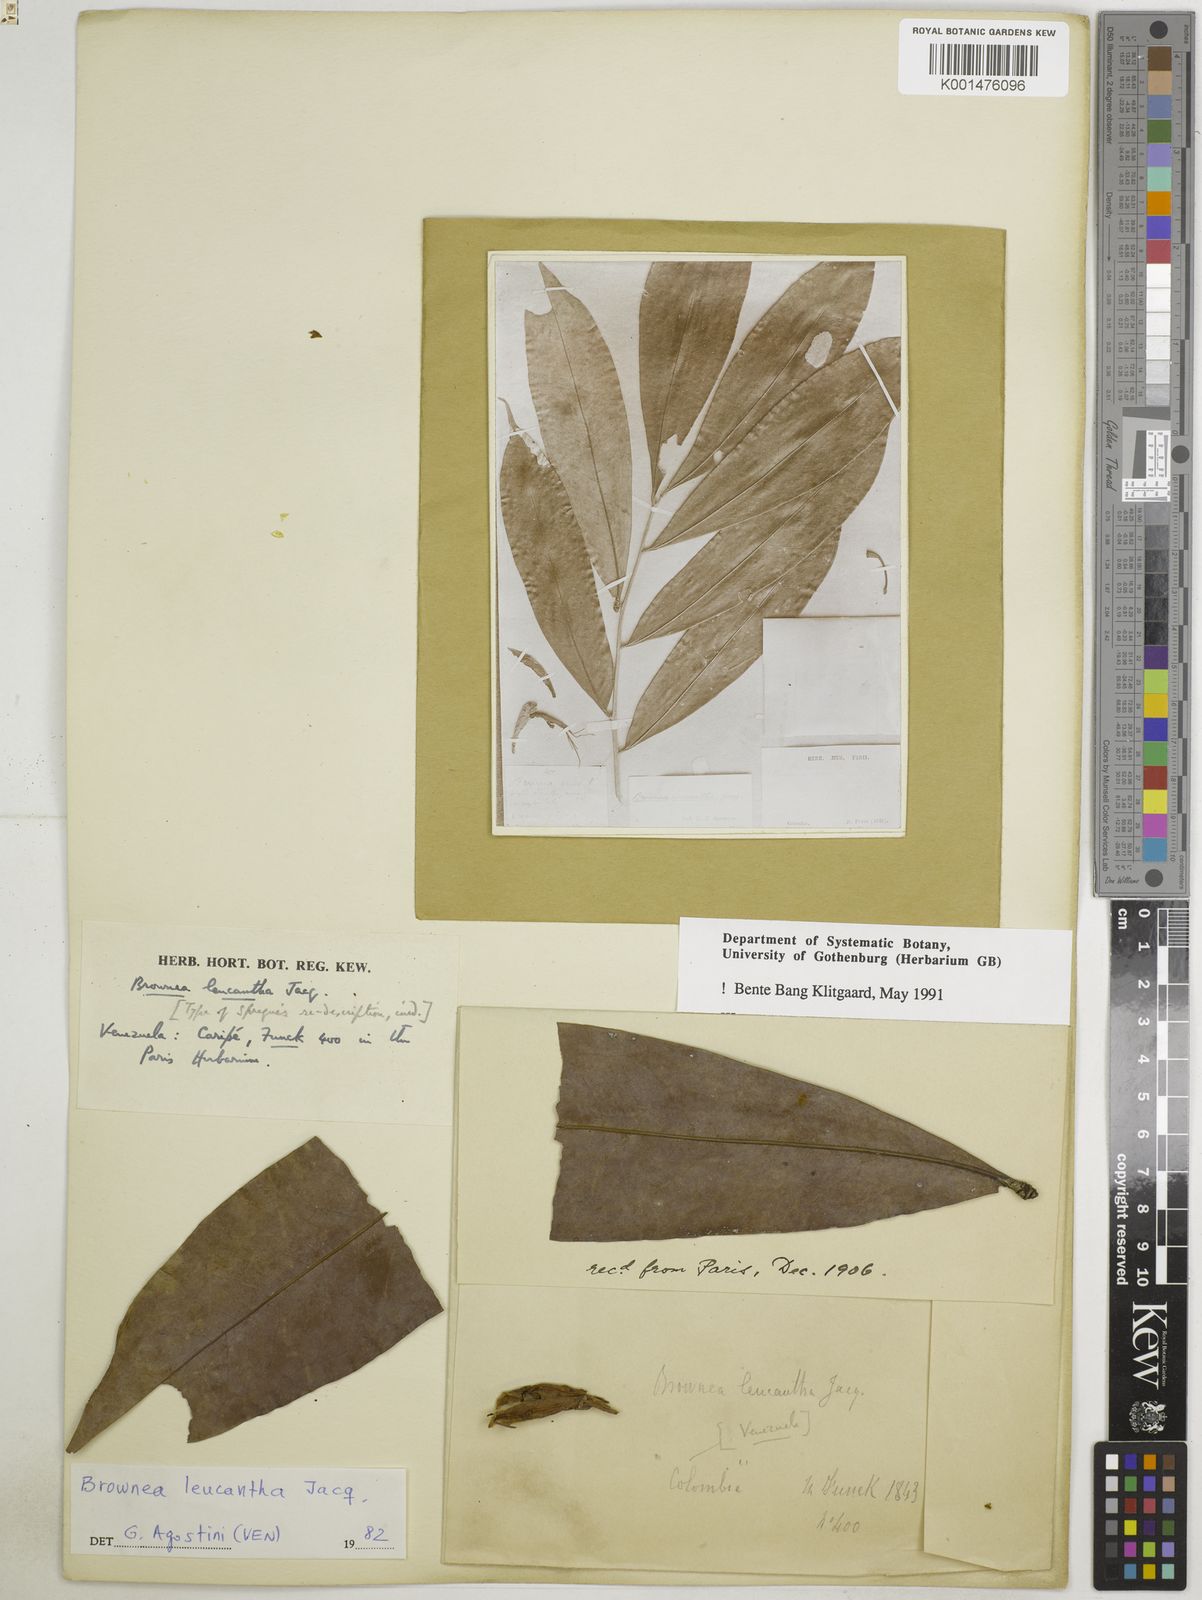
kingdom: Plantae
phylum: Tracheophyta
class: Magnoliopsida
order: Fabales
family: Fabaceae
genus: Brownea
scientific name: Brownea leucantha
